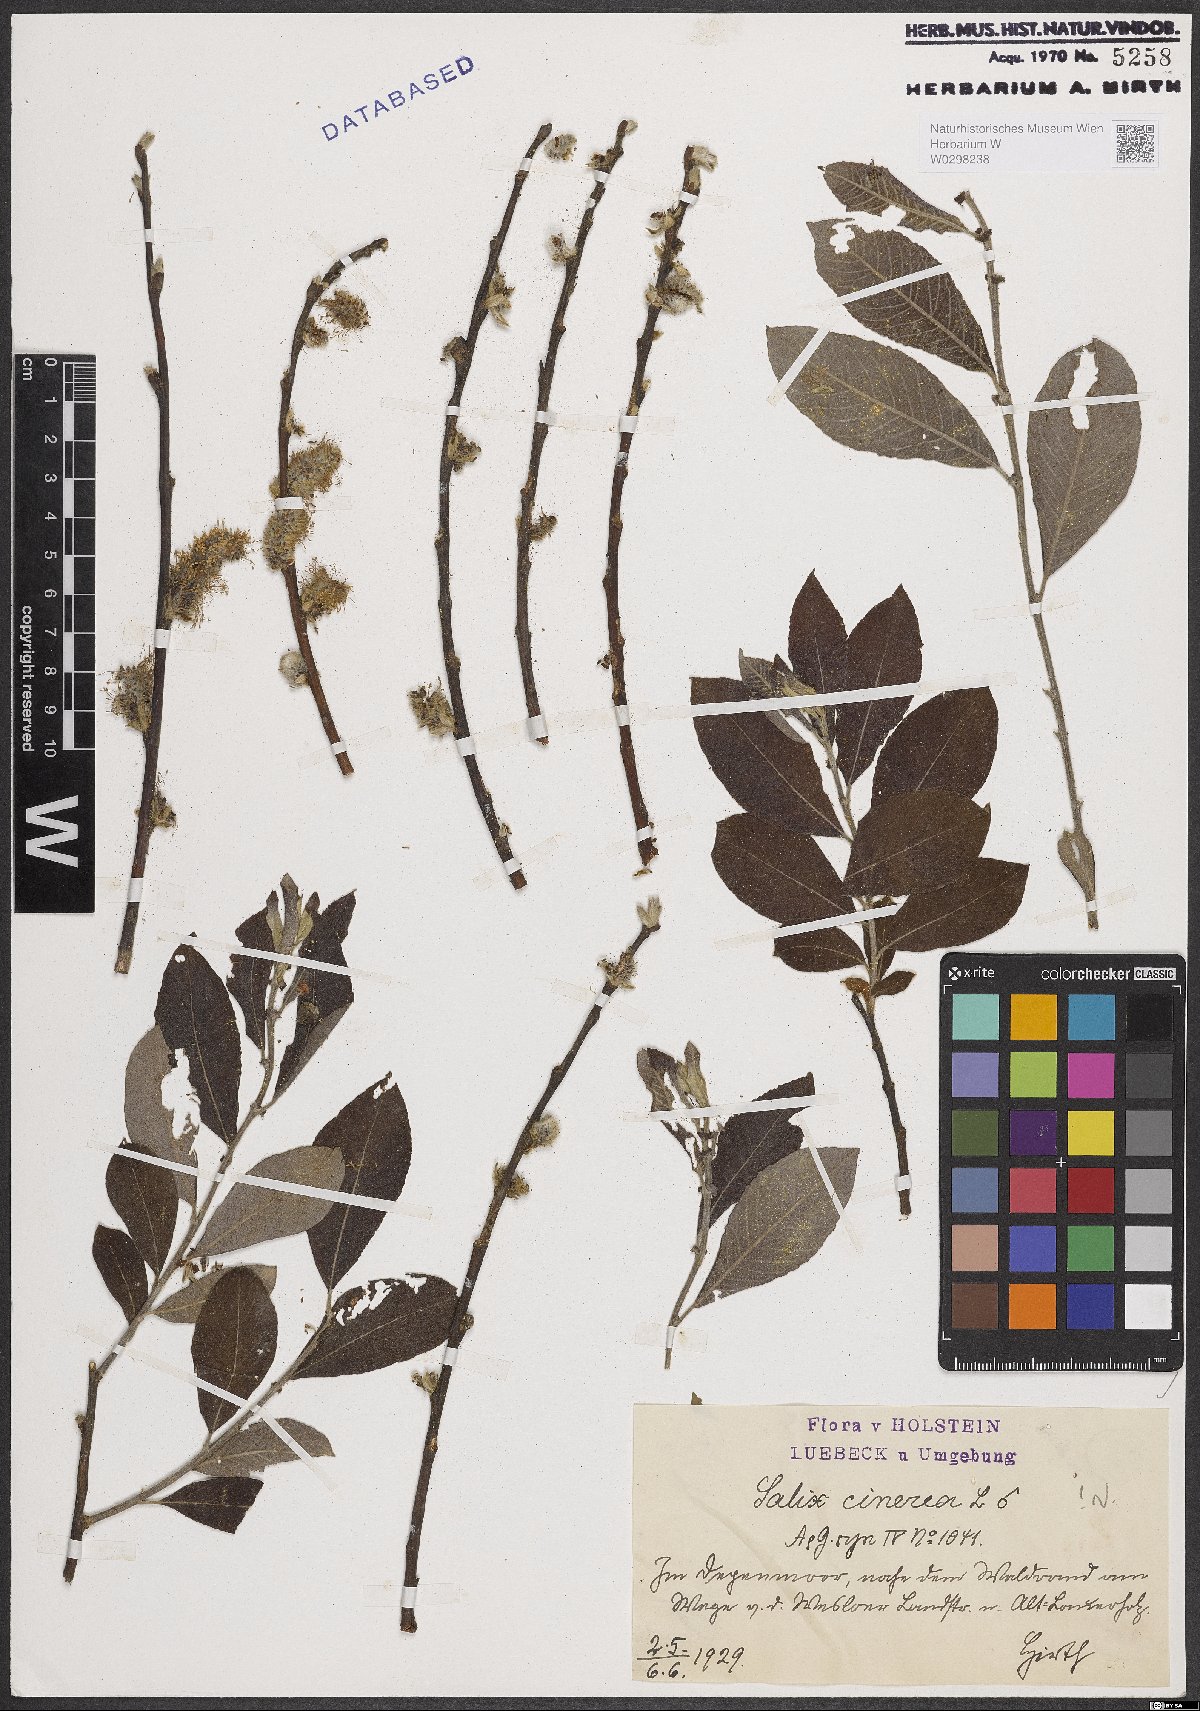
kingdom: Plantae
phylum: Tracheophyta
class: Magnoliopsida
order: Malpighiales
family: Salicaceae
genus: Salix
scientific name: Salix cinerea
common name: Common sallow
